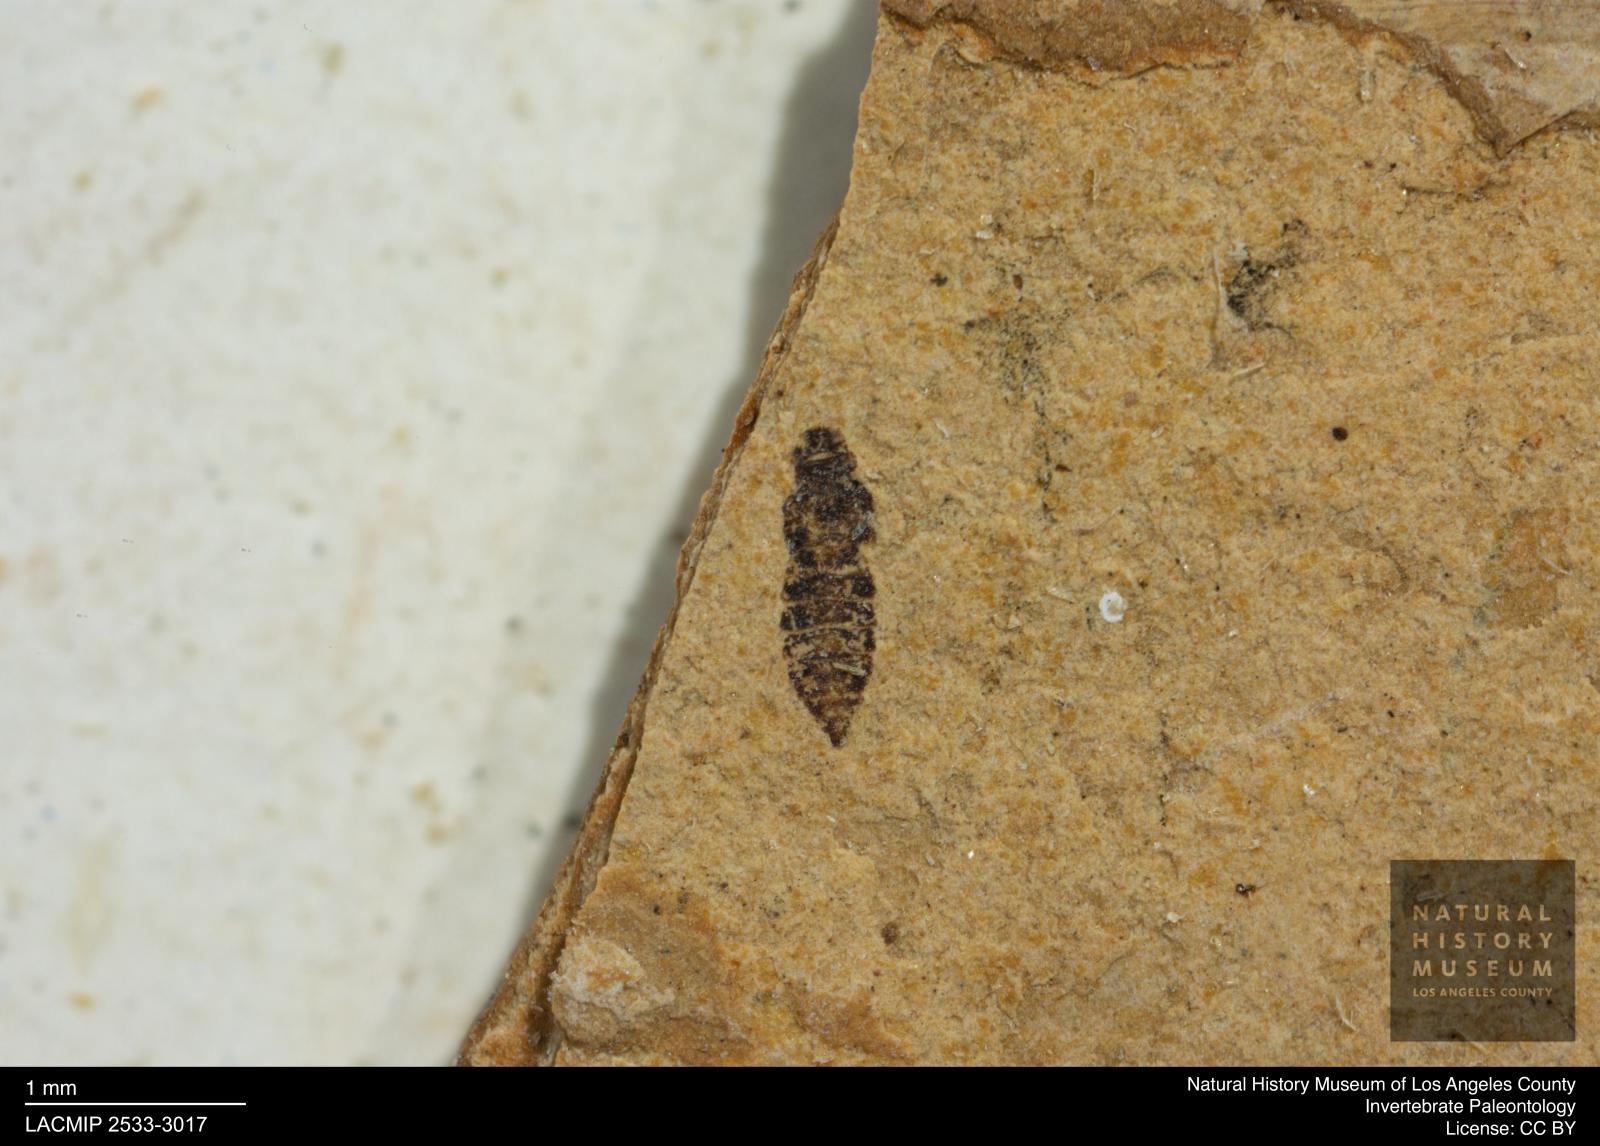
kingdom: Animalia
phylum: Arthropoda
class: Insecta
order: Thysanoptera
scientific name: Thysanoptera
